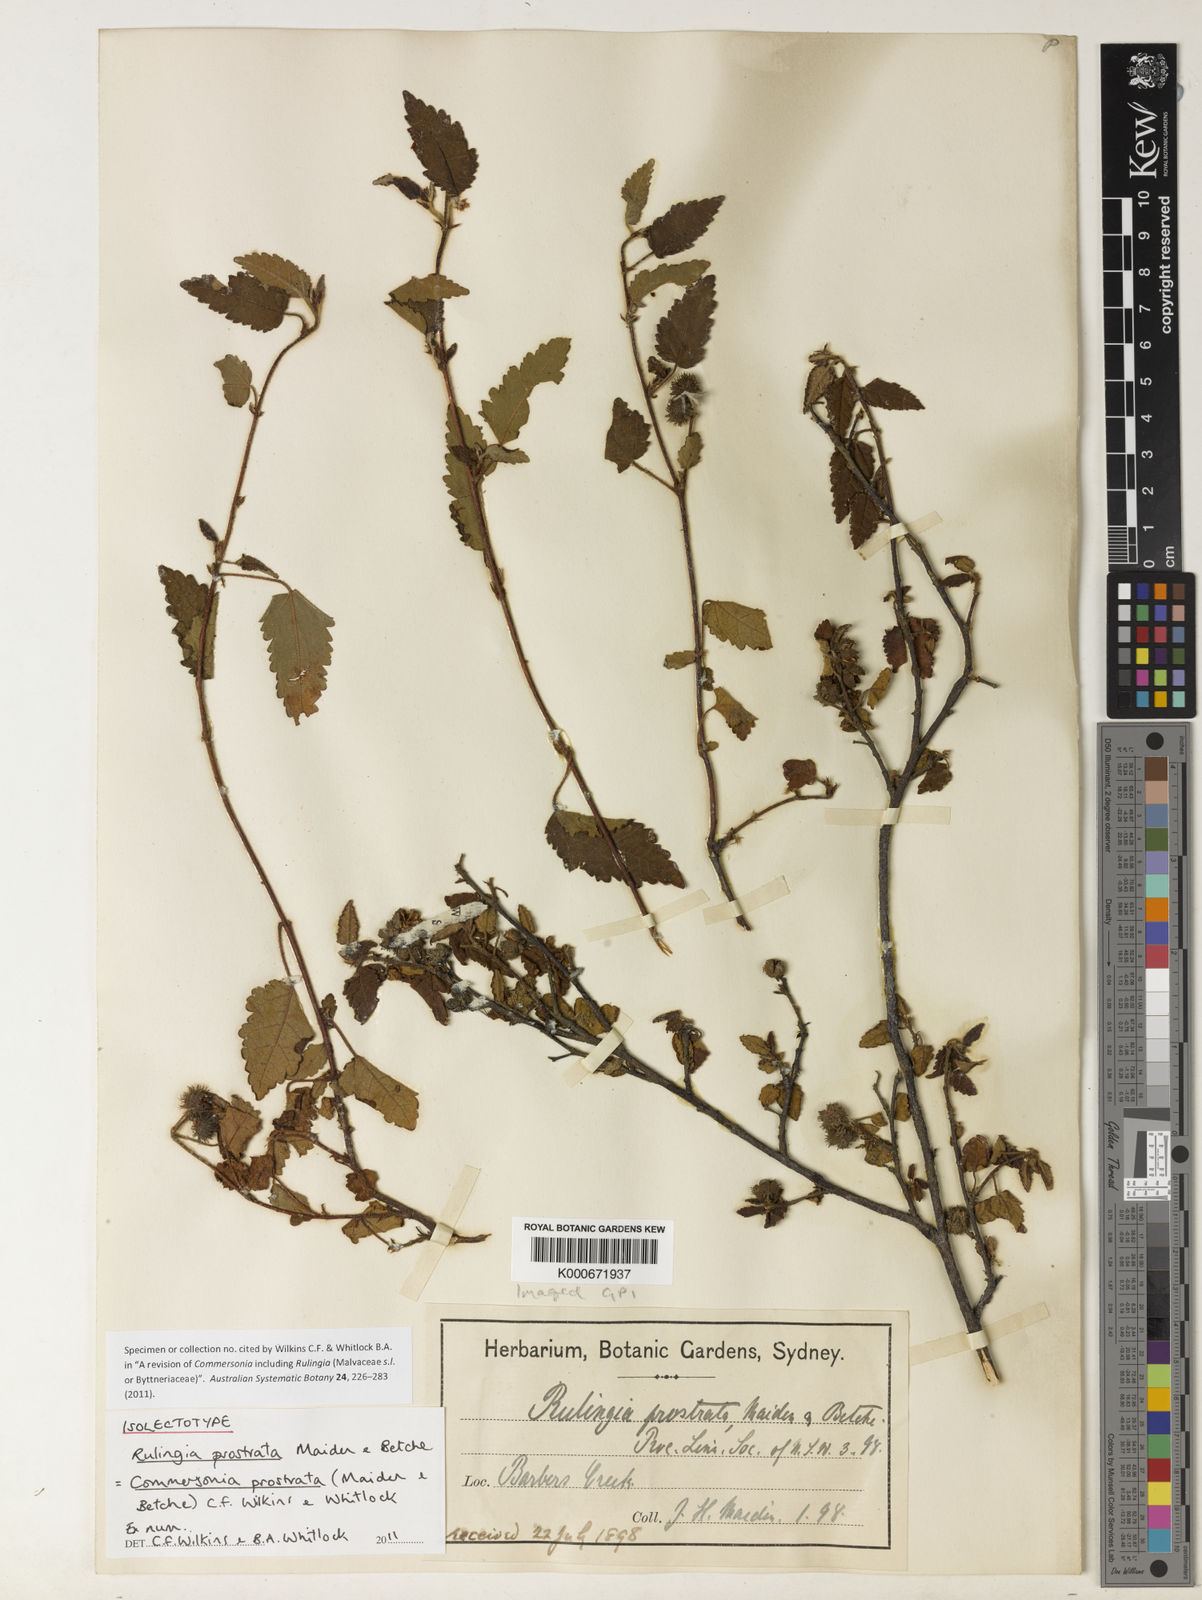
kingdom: Plantae
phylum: Tracheophyta
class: Magnoliopsida
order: Malvales
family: Malvaceae
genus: Commersonia
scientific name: Commersonia prostrata
